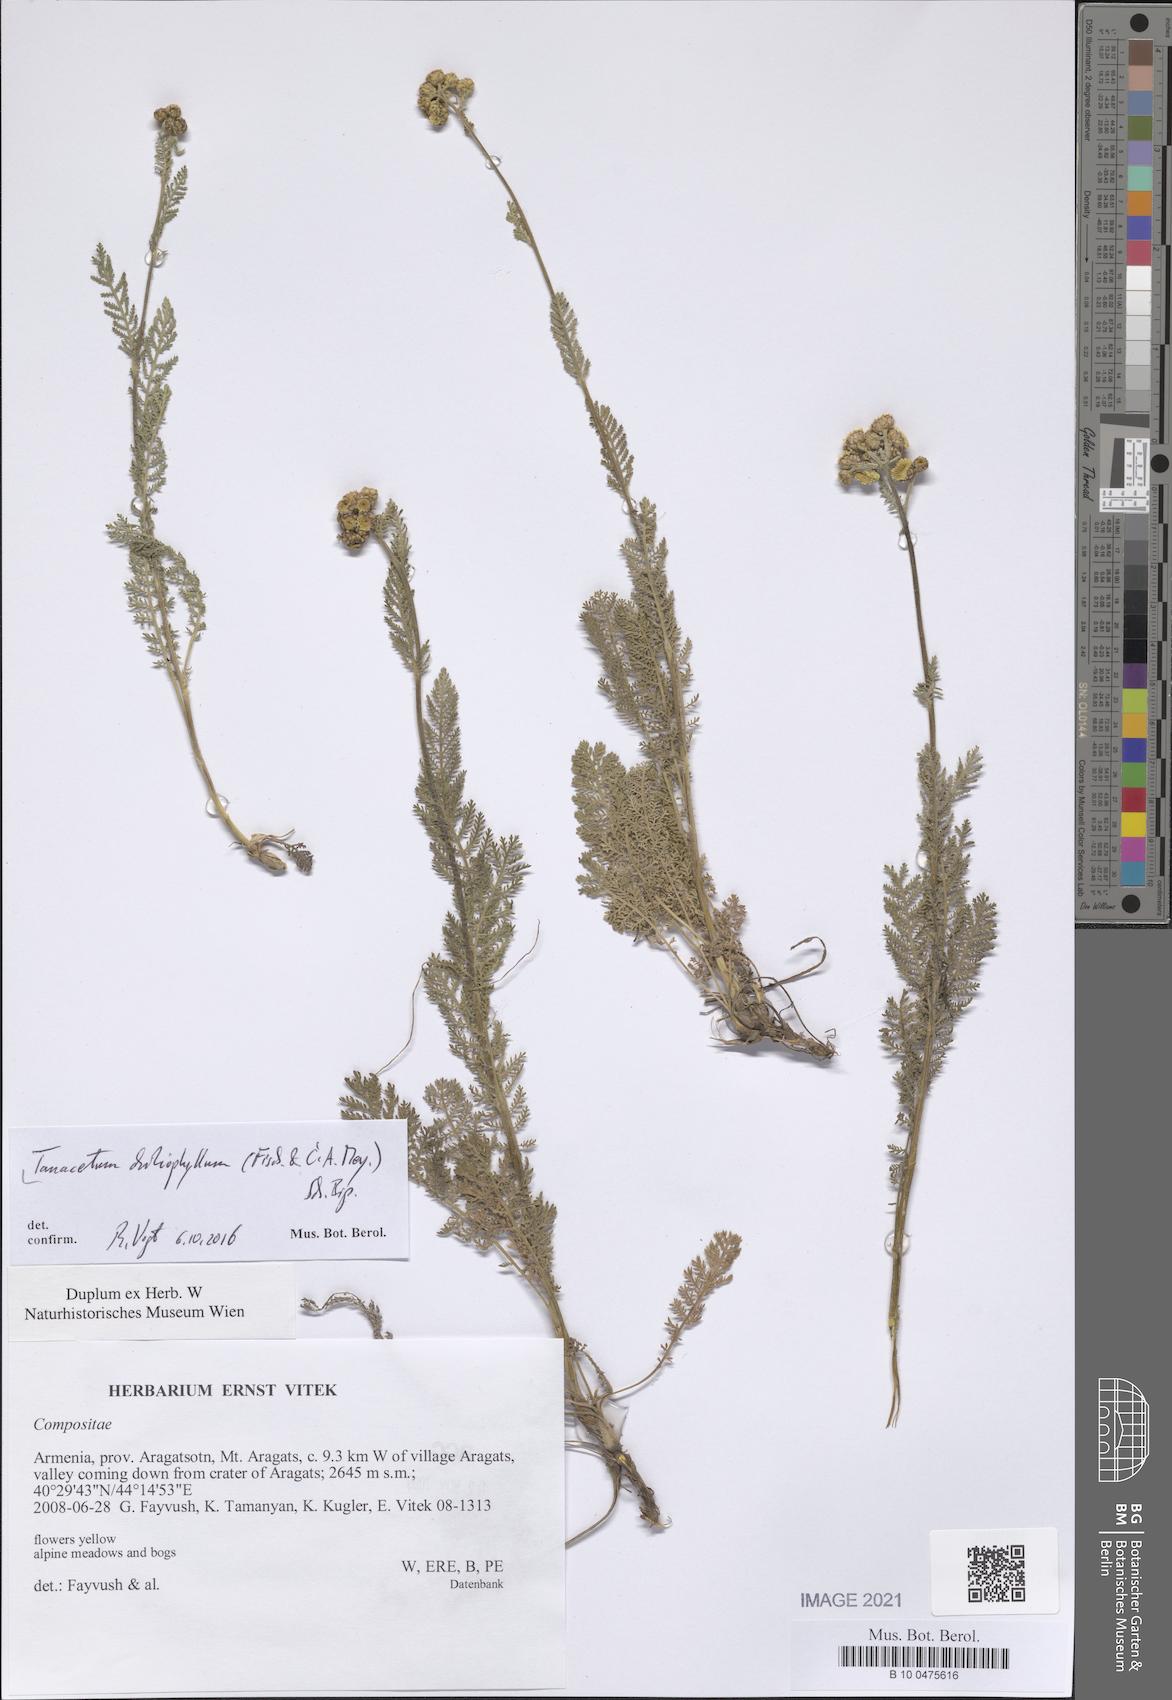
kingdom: Plantae
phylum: Tracheophyta
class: Magnoliopsida
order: Asterales
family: Asteraceae
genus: Tanacetum
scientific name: Tanacetum aureum
